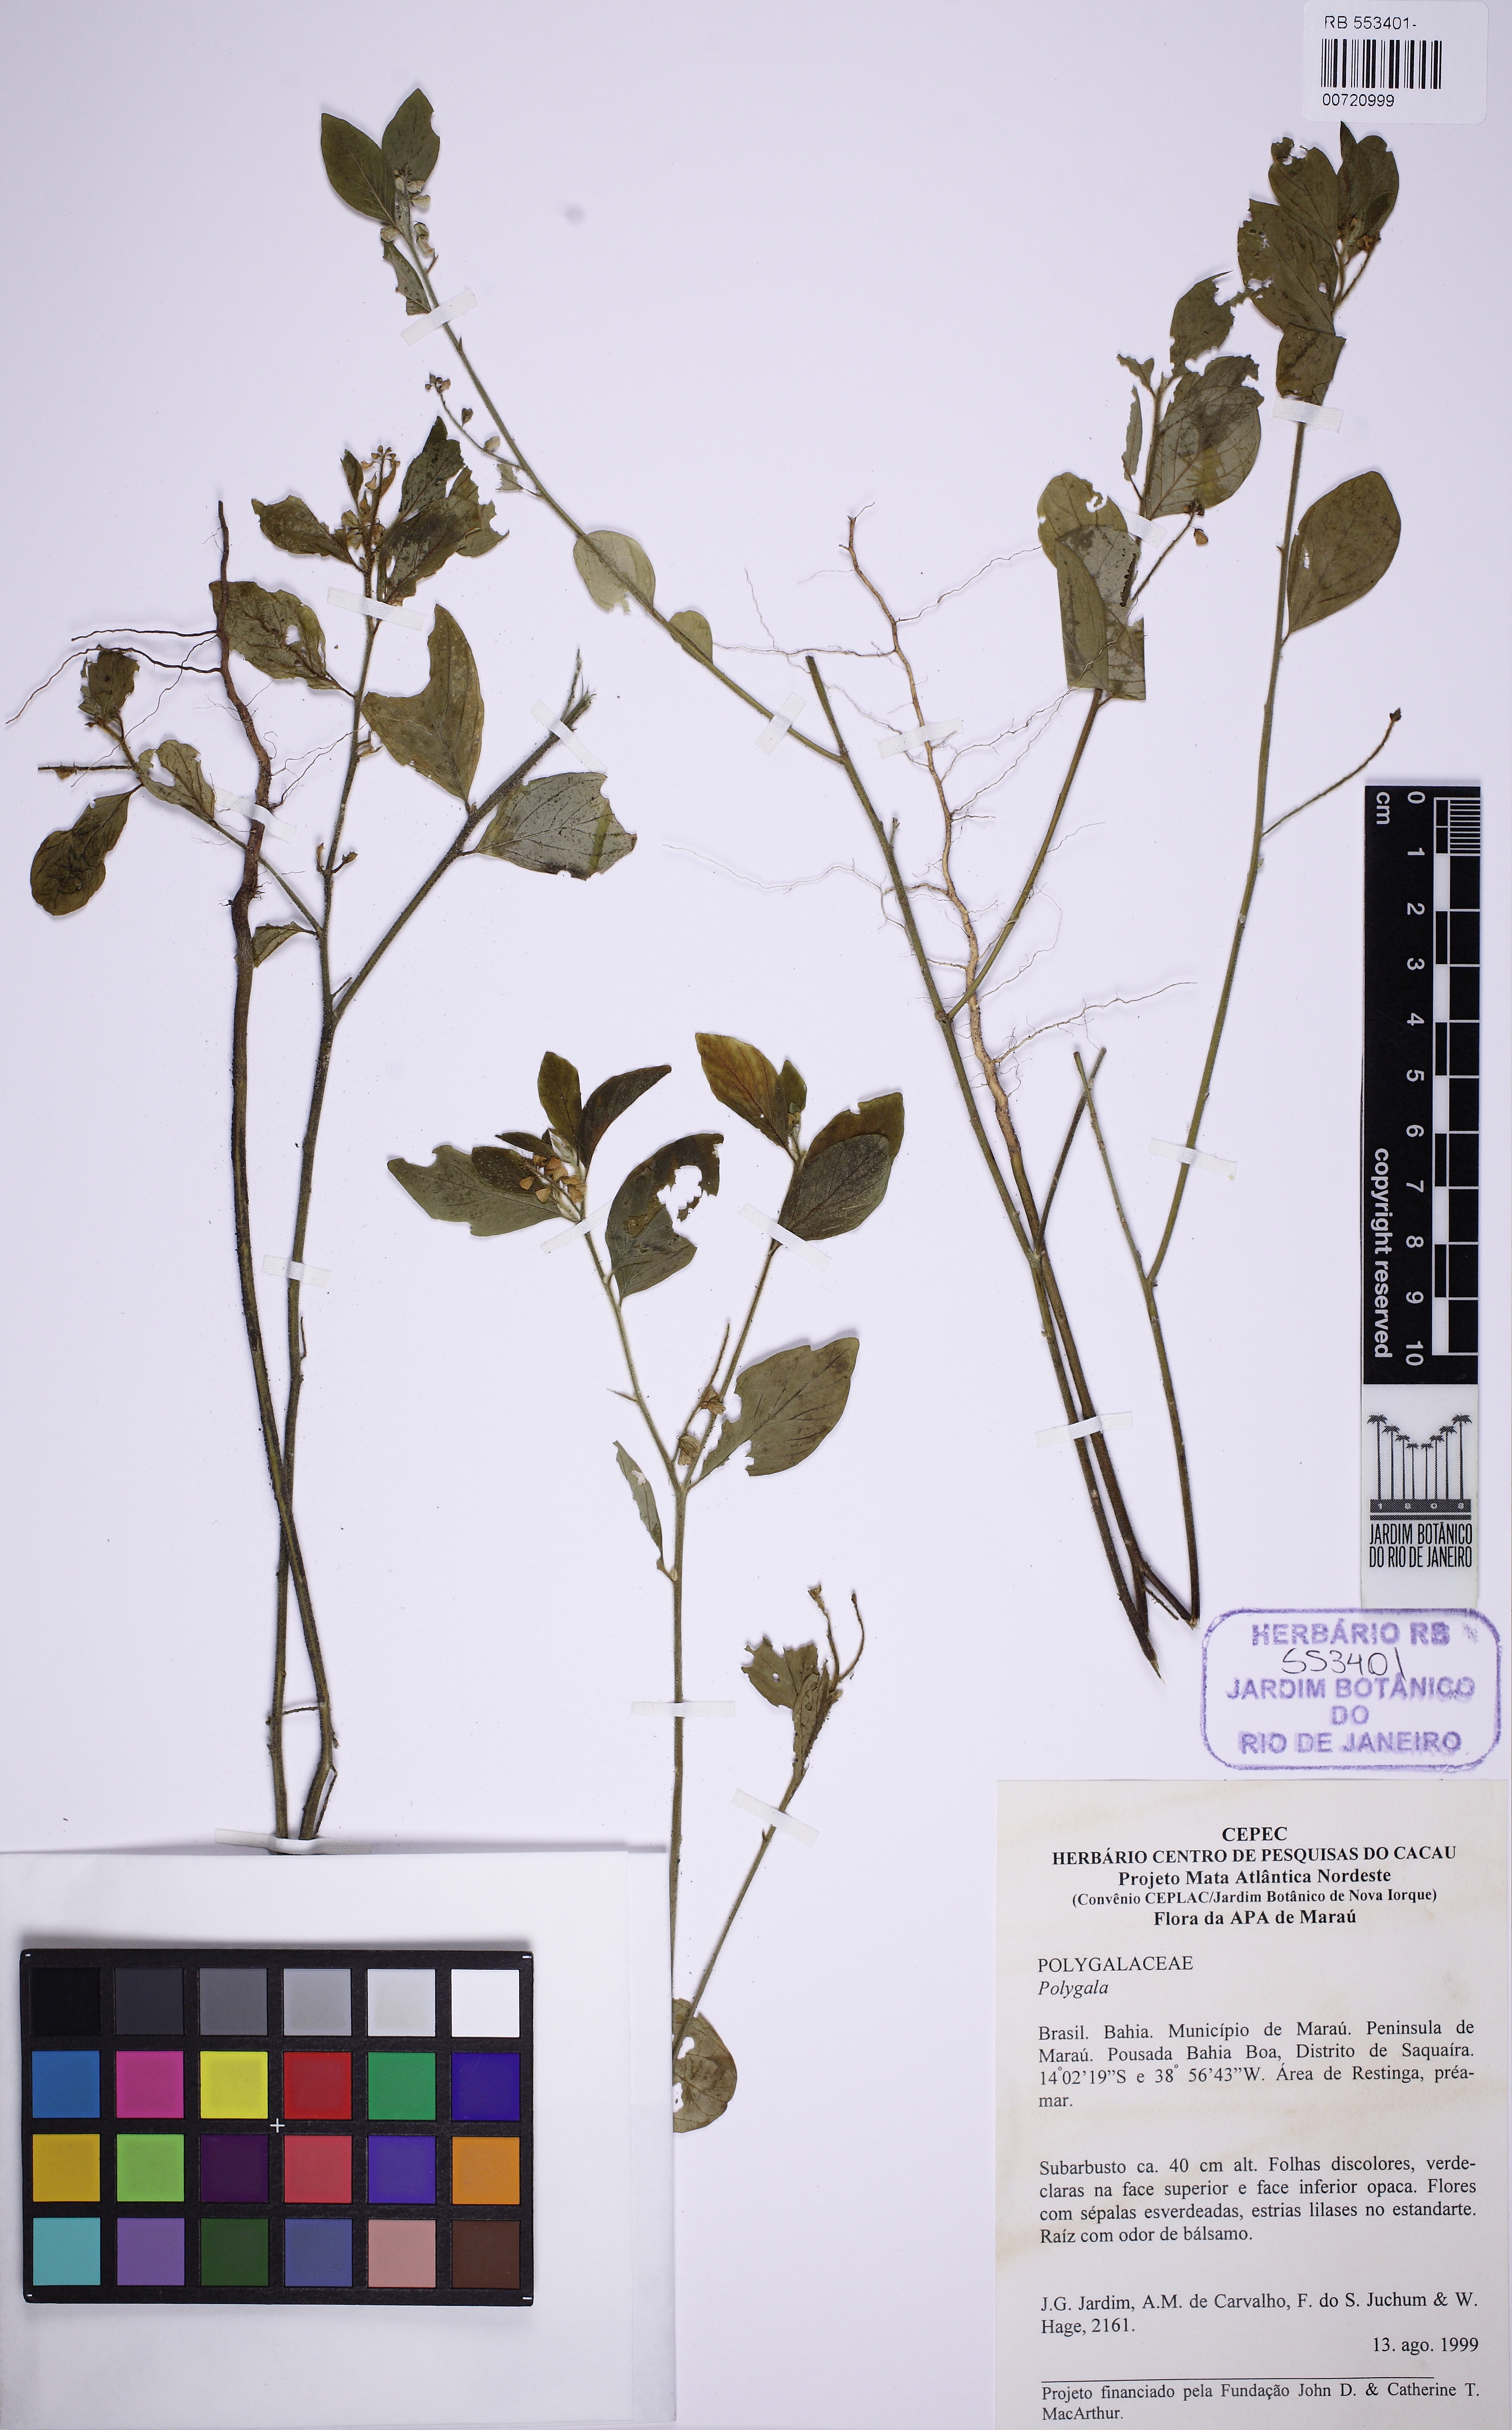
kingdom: Plantae
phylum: Tracheophyta
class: Magnoliopsida
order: Fabales
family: Polygalaceae
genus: Asemeia
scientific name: Asemeia
